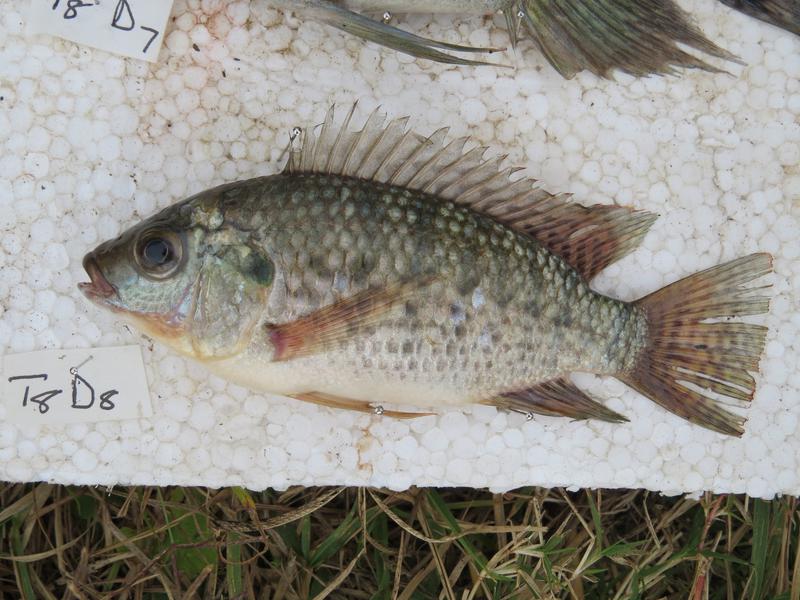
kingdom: Animalia
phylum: Chordata
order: Perciformes
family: Cichlidae
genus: Oreochromis
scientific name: Oreochromis leucostictus
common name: Blue spotted tilapia
